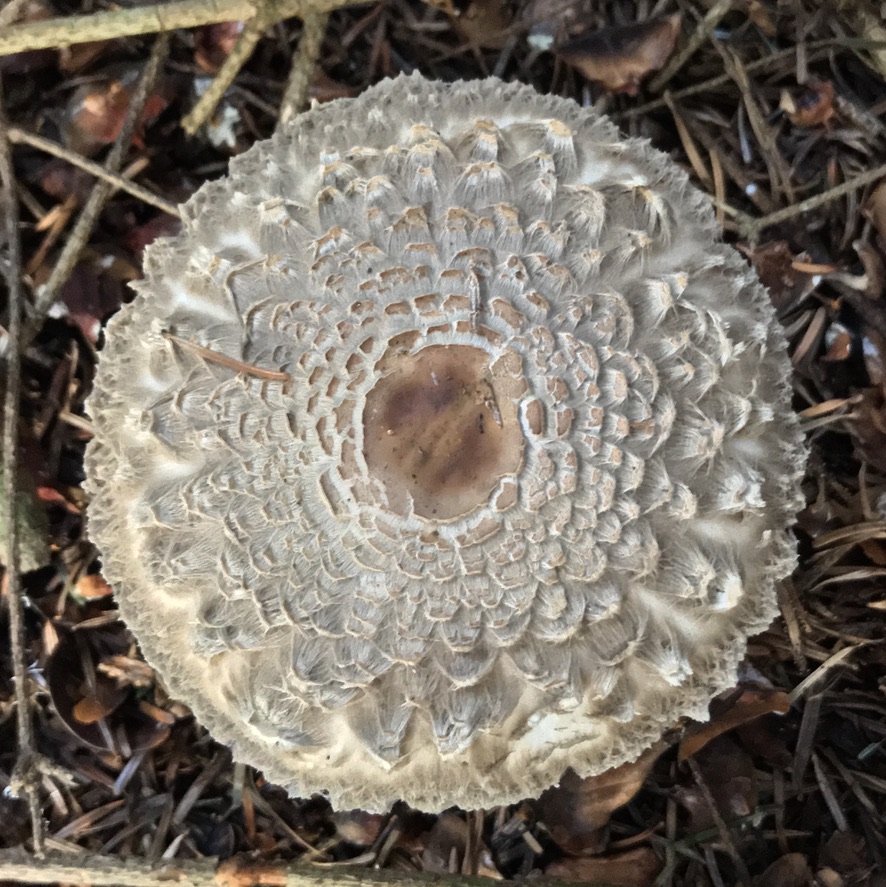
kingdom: Fungi
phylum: Basidiomycota
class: Agaricomycetes
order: Agaricales
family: Agaricaceae
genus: Chlorophyllum
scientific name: Chlorophyllum olivieri
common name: almindelig rabarberhat
